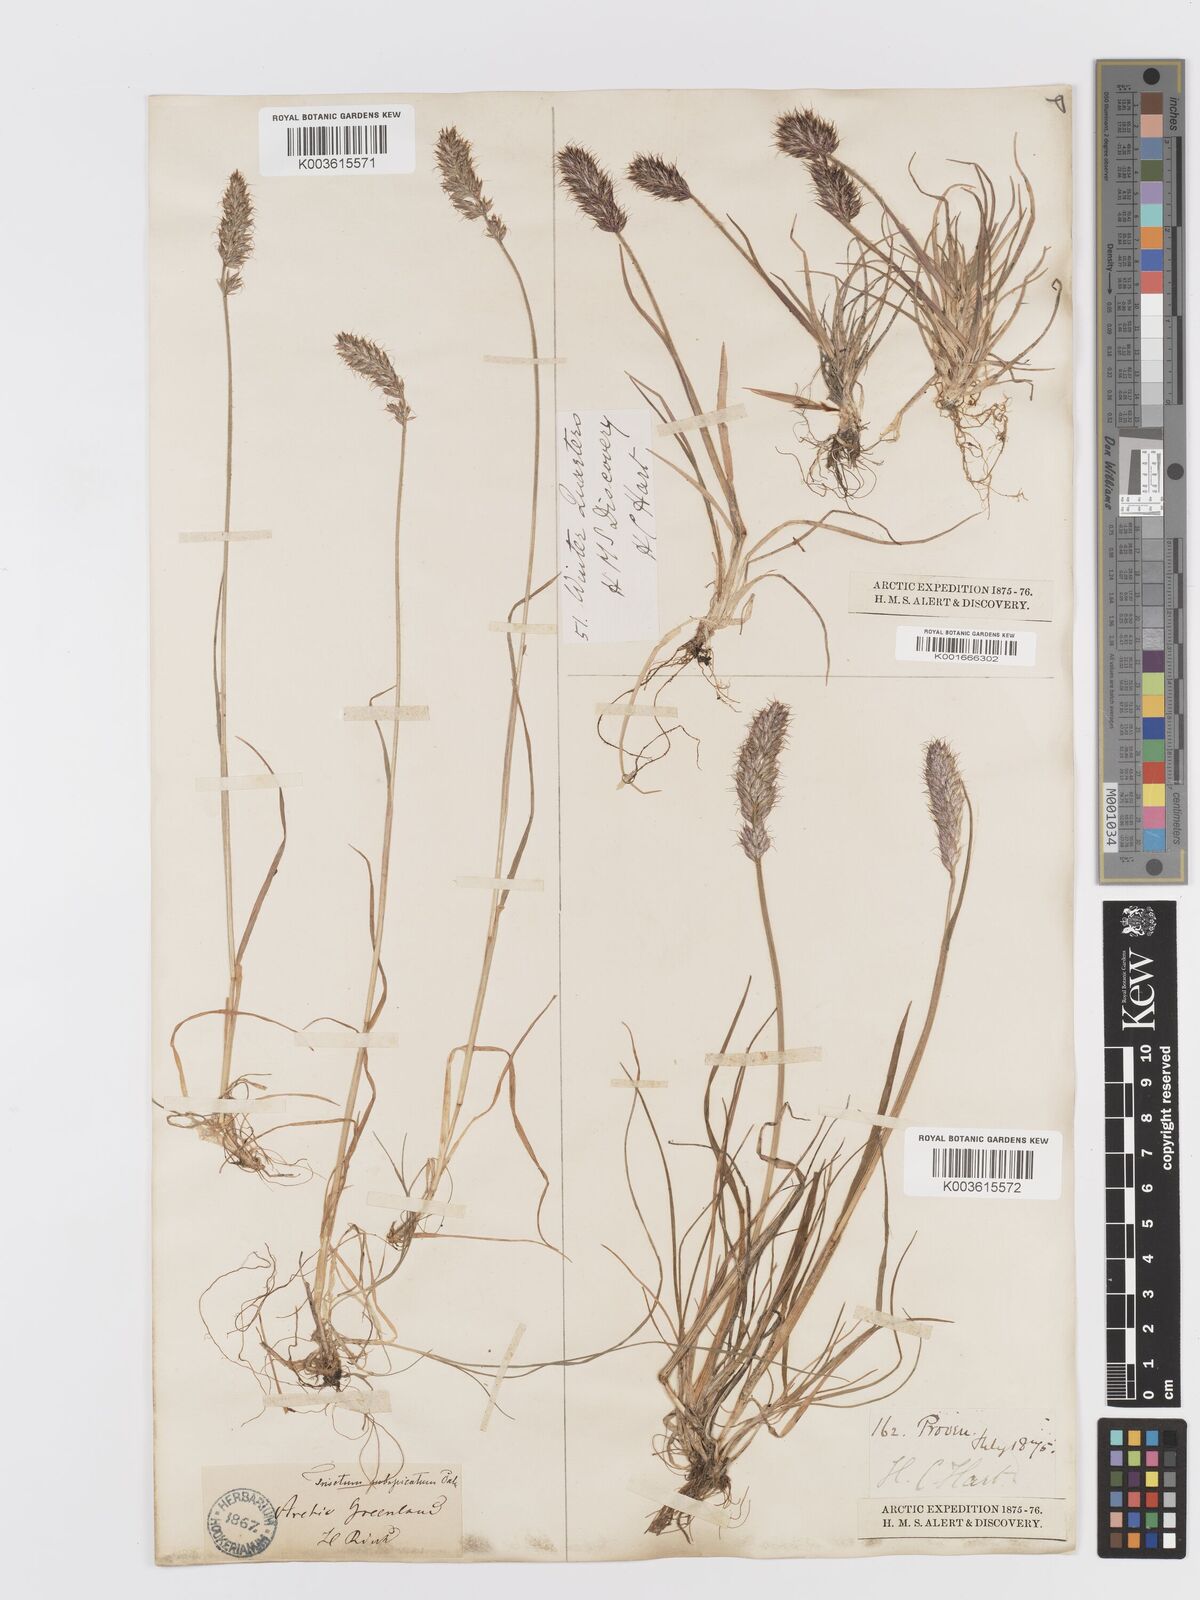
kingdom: Plantae
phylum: Tracheophyta
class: Liliopsida
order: Poales
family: Poaceae
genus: Koeleria
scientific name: Koeleria spicata
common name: Mountain trisetum
